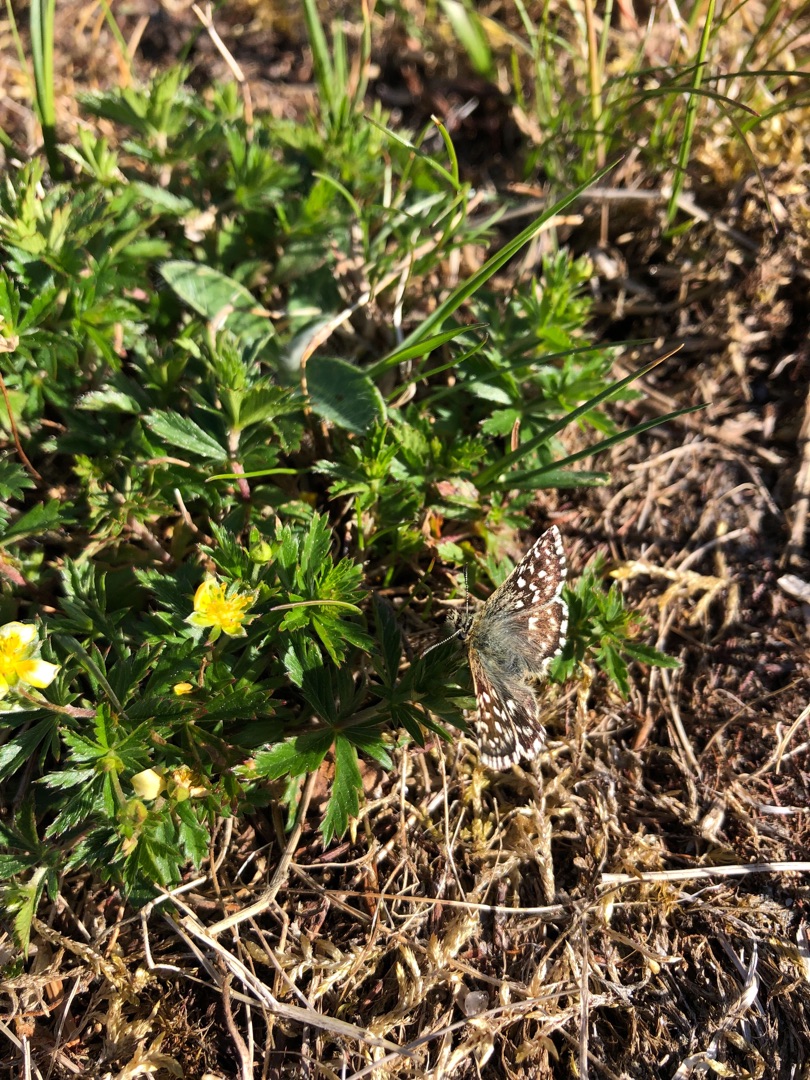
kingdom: Animalia
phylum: Arthropoda
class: Insecta
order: Lepidoptera
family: Hesperiidae
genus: Pyrgus
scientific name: Pyrgus malvae
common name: Spættet bredpande
